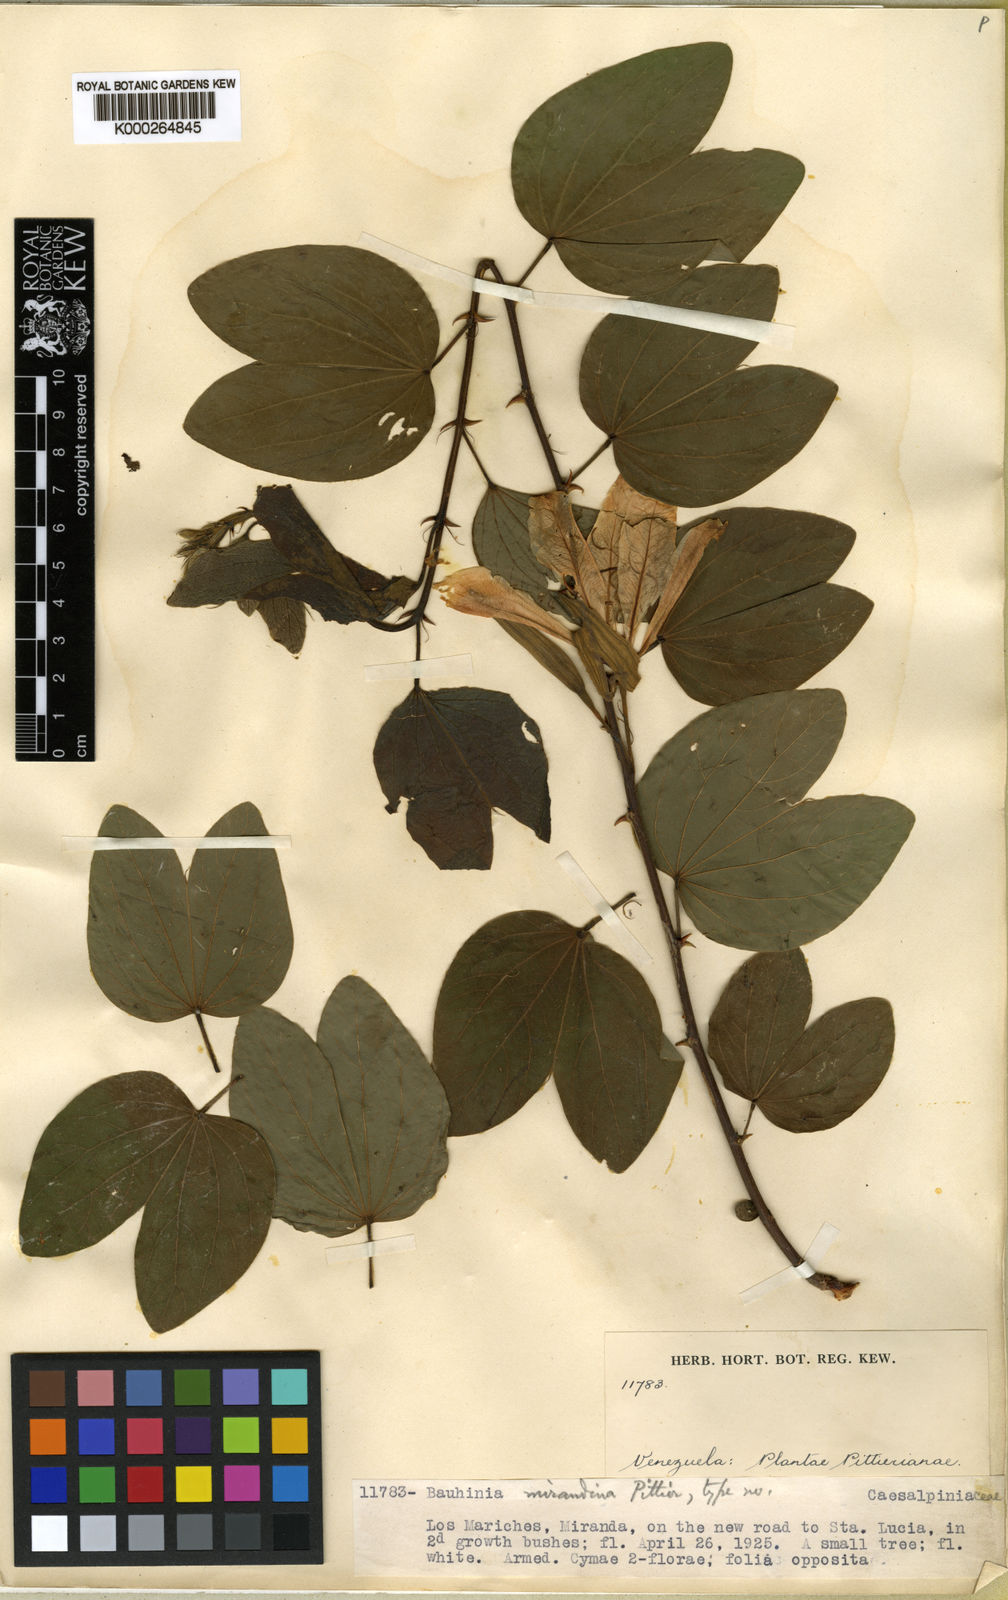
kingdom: Plantae
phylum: Tracheophyta
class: Magnoliopsida
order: Fabales
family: Fabaceae
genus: Bauhinia
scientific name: Bauhinia aculeata
